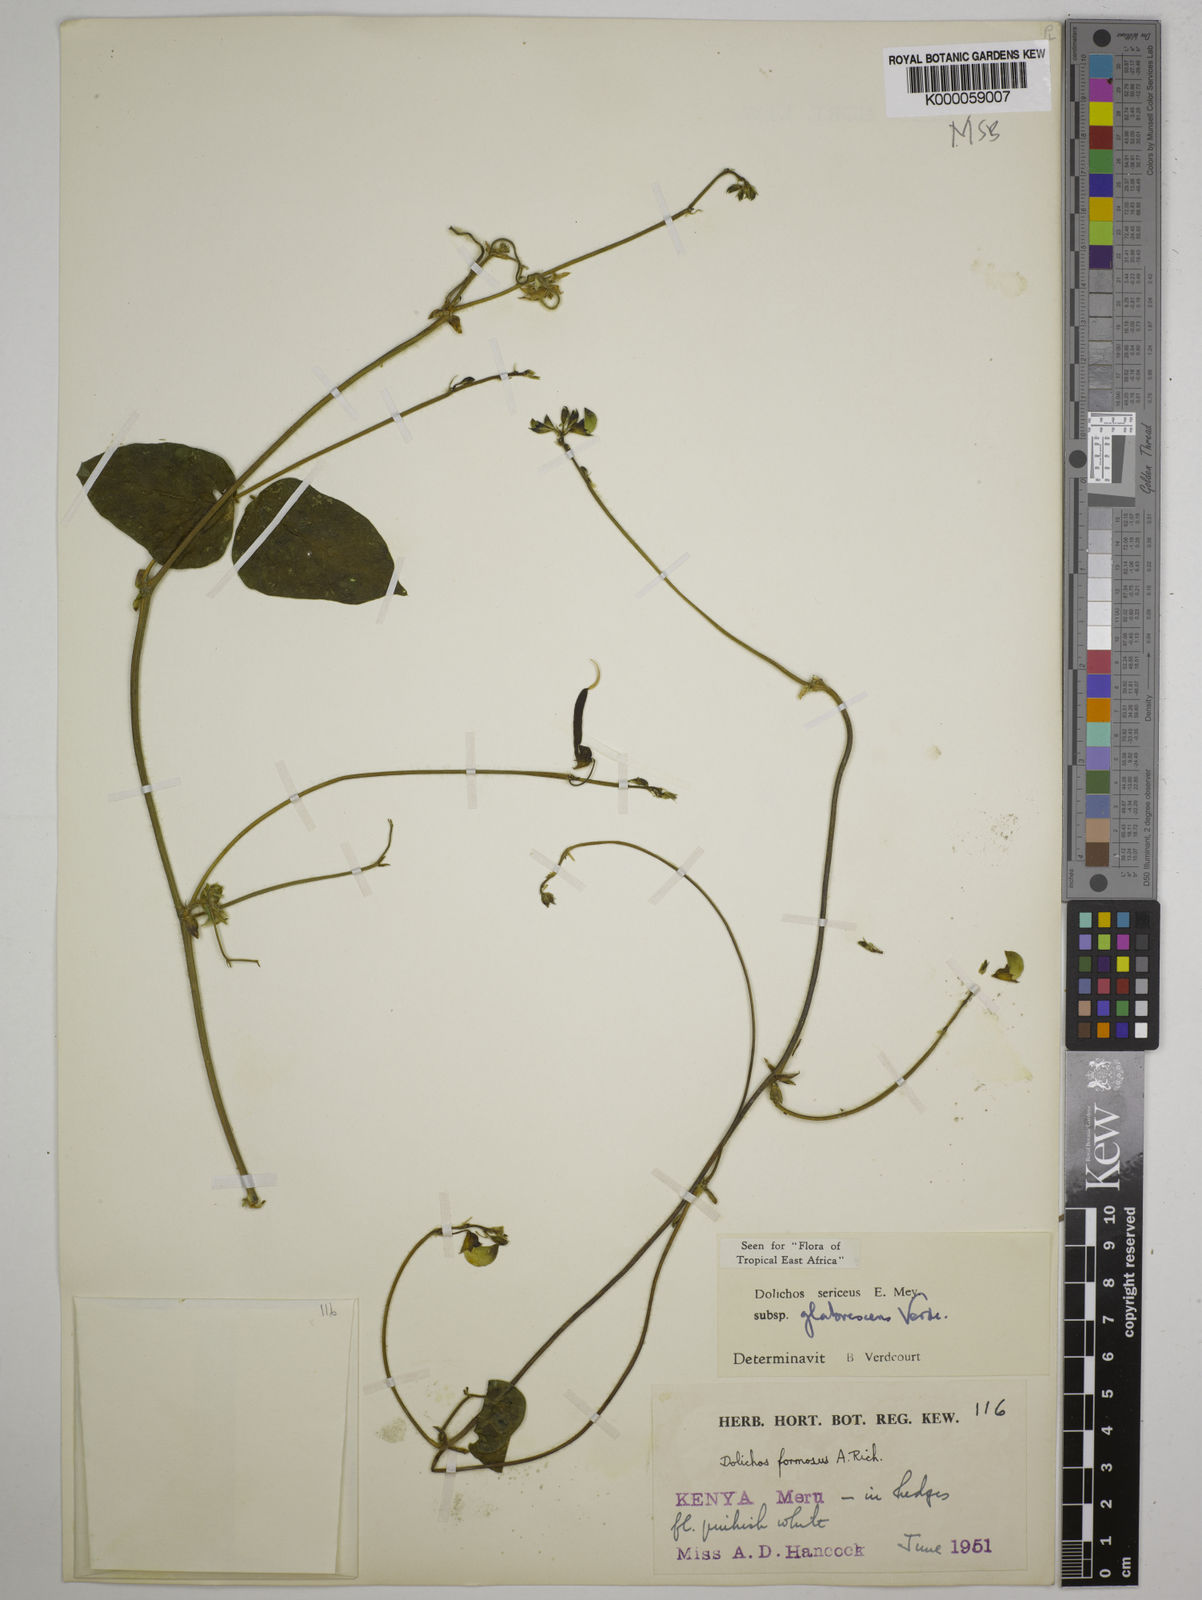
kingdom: Plantae
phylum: Tracheophyta
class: Magnoliopsida
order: Fabales
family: Fabaceae
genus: Dolichos
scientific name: Dolichos sericeus
